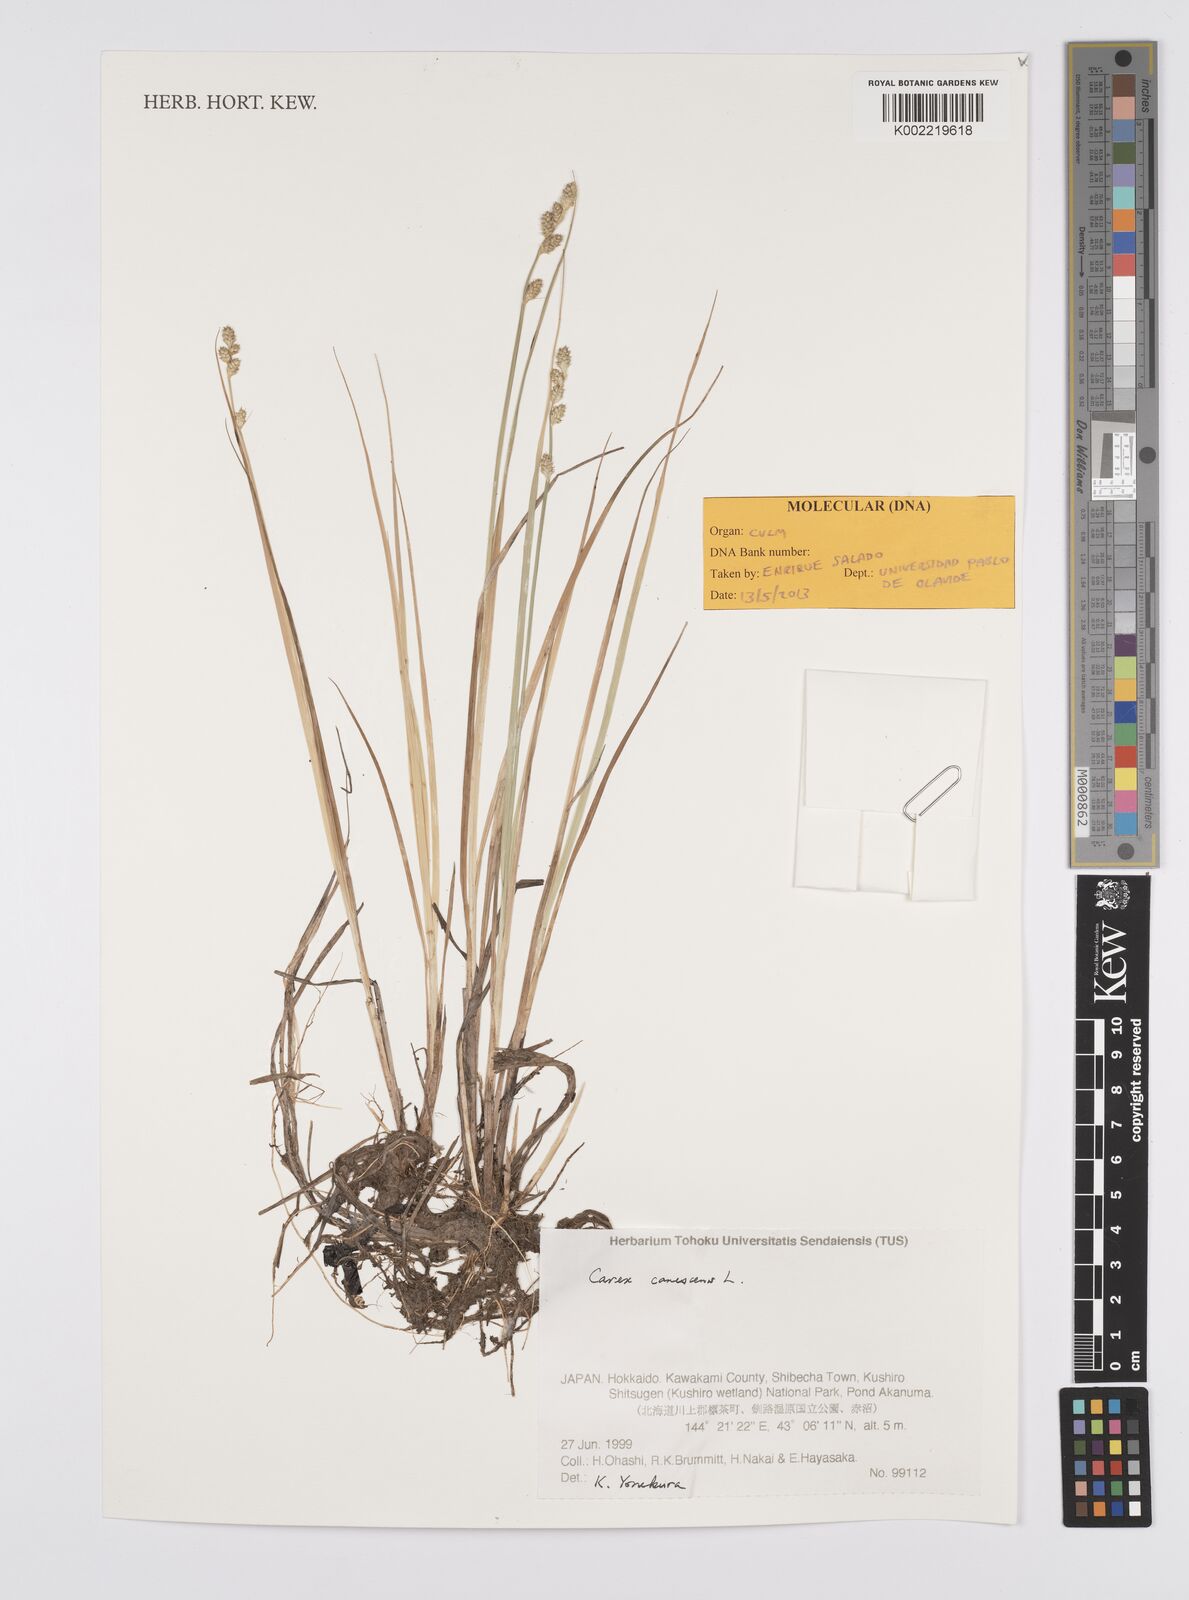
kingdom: Plantae
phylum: Tracheophyta
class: Liliopsida
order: Poales
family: Cyperaceae
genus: Carex
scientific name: Carex canescens
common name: White sedge
